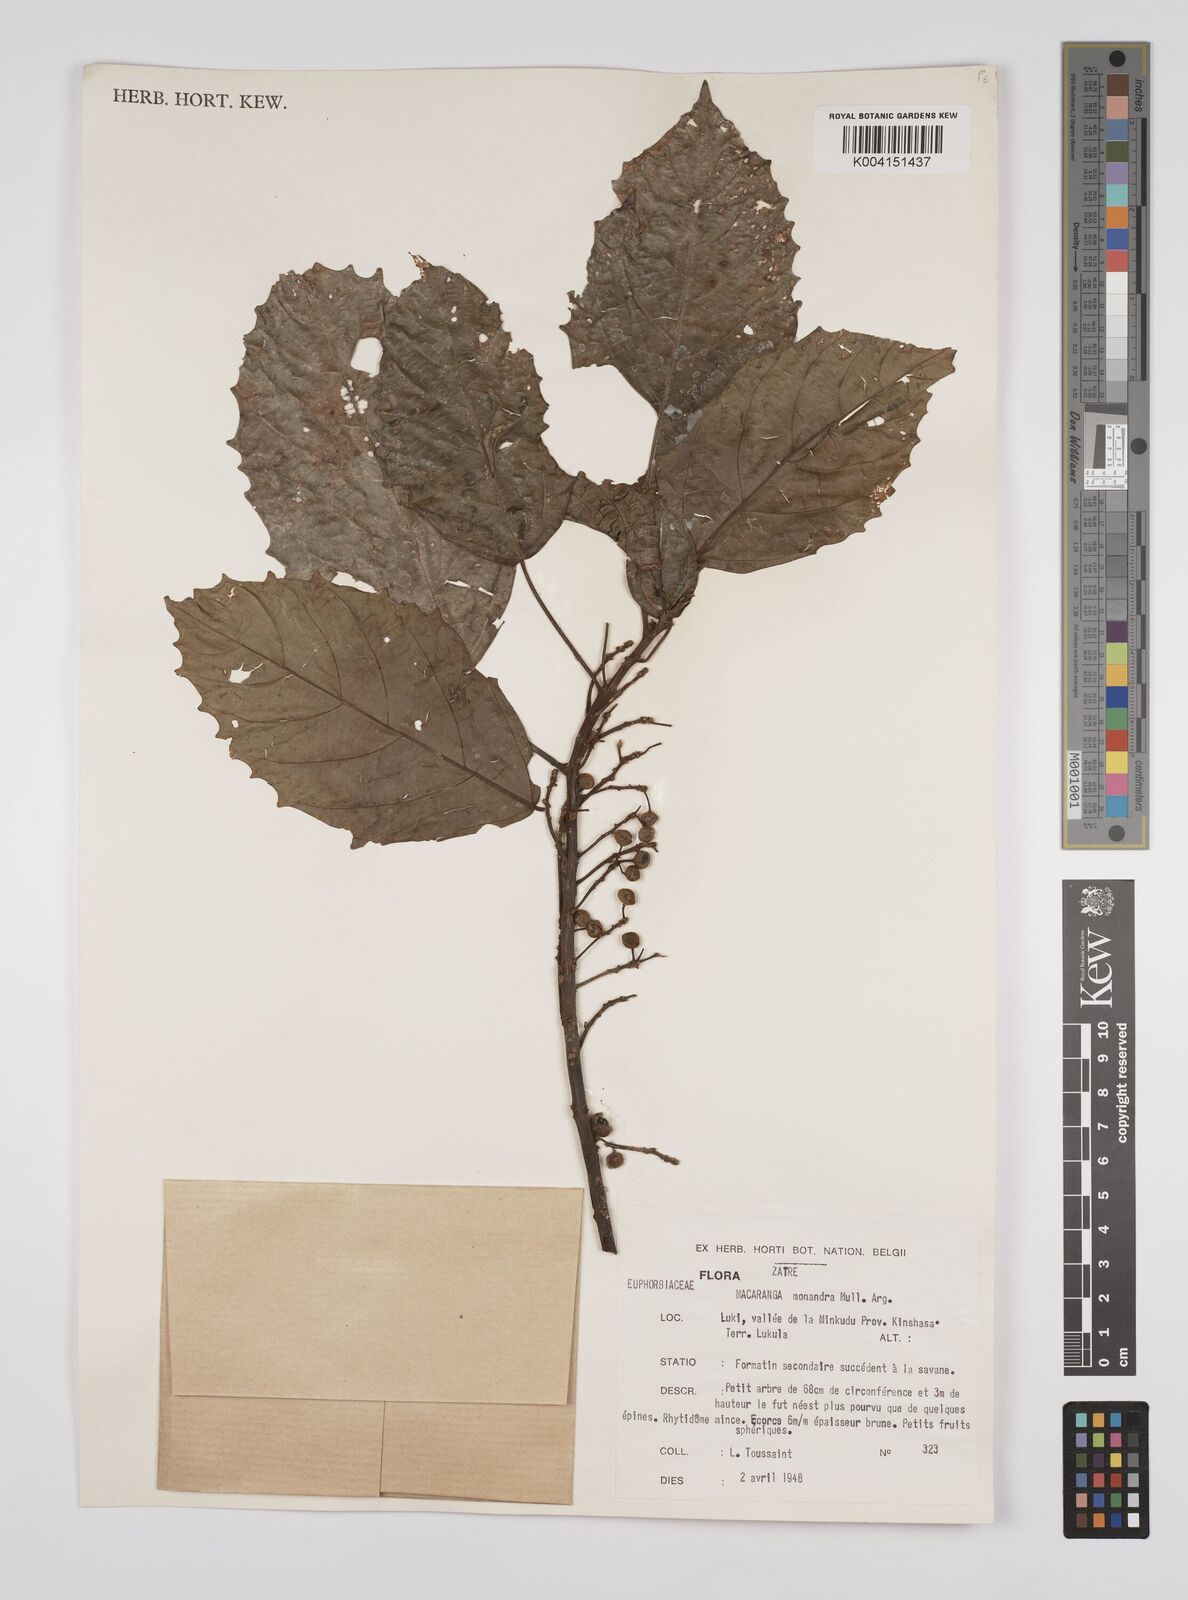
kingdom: Plantae
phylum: Tracheophyta
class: Magnoliopsida
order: Malpighiales
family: Euphorbiaceae
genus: Macaranga
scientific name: Macaranga monandra
